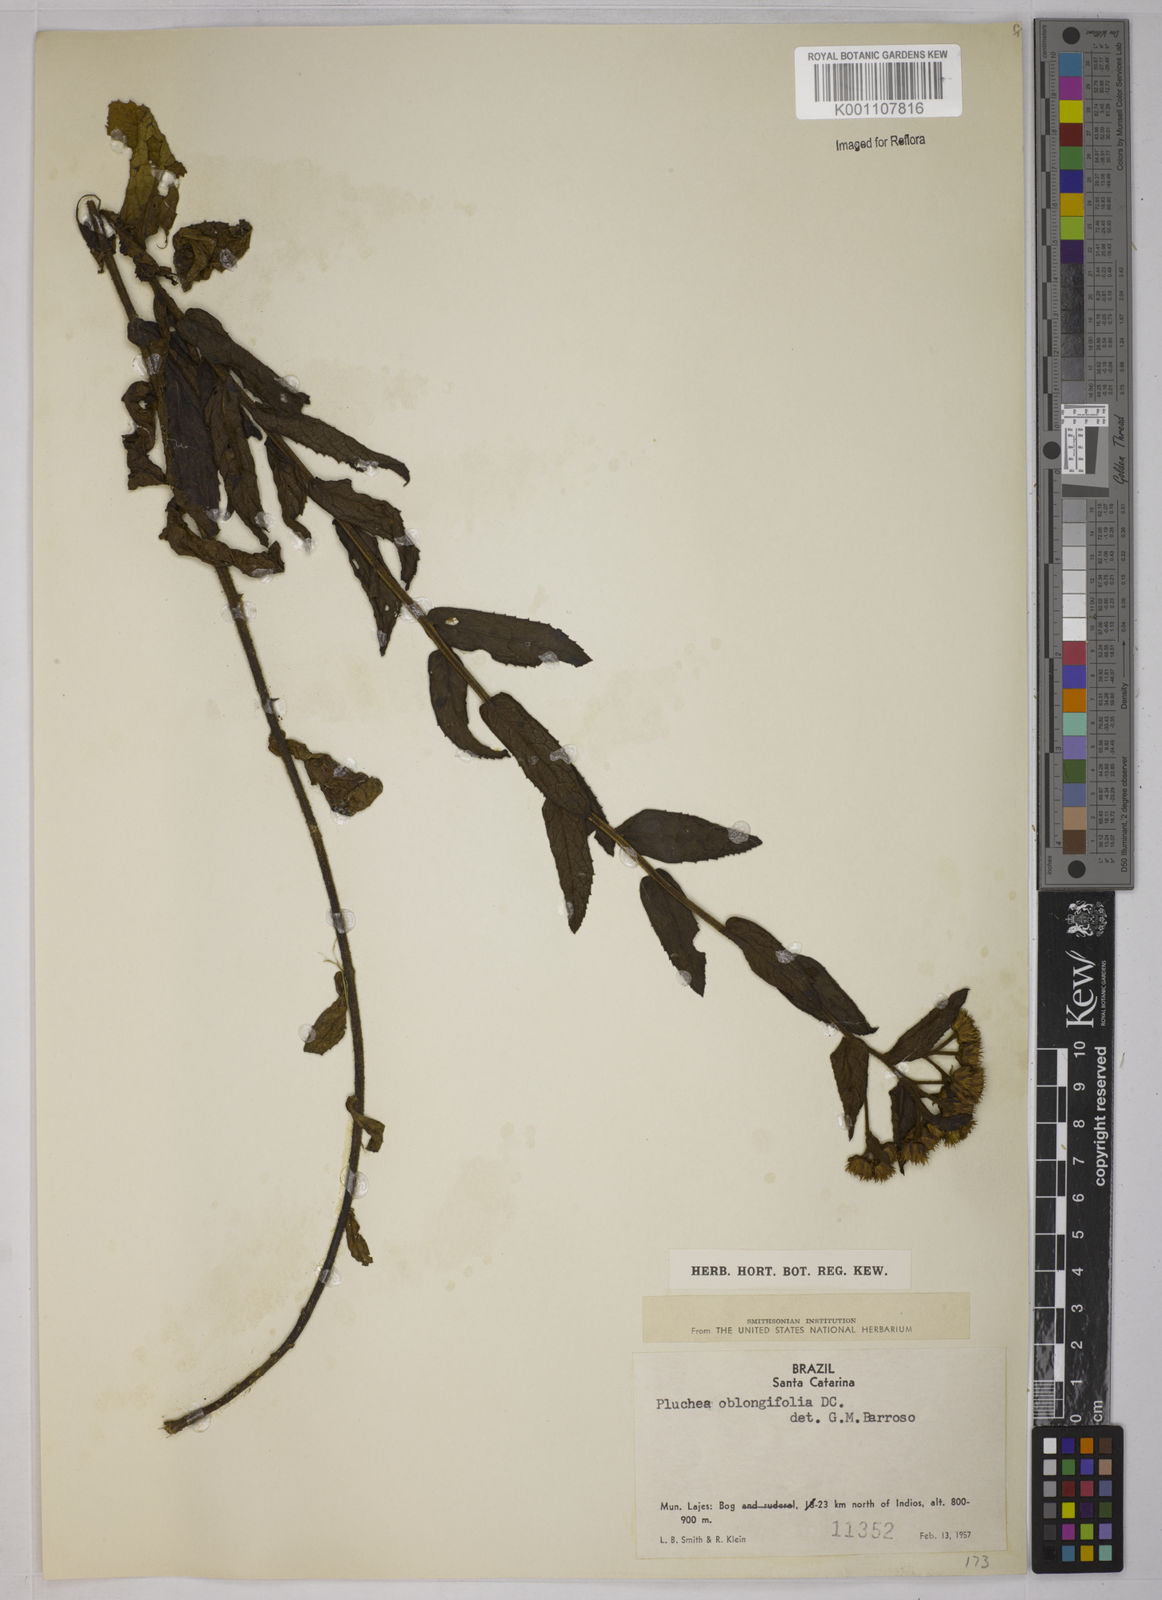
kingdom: Plantae
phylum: Tracheophyta
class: Magnoliopsida
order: Asterales
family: Asteraceae
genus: Pluchea
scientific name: Pluchea oblongifolia
